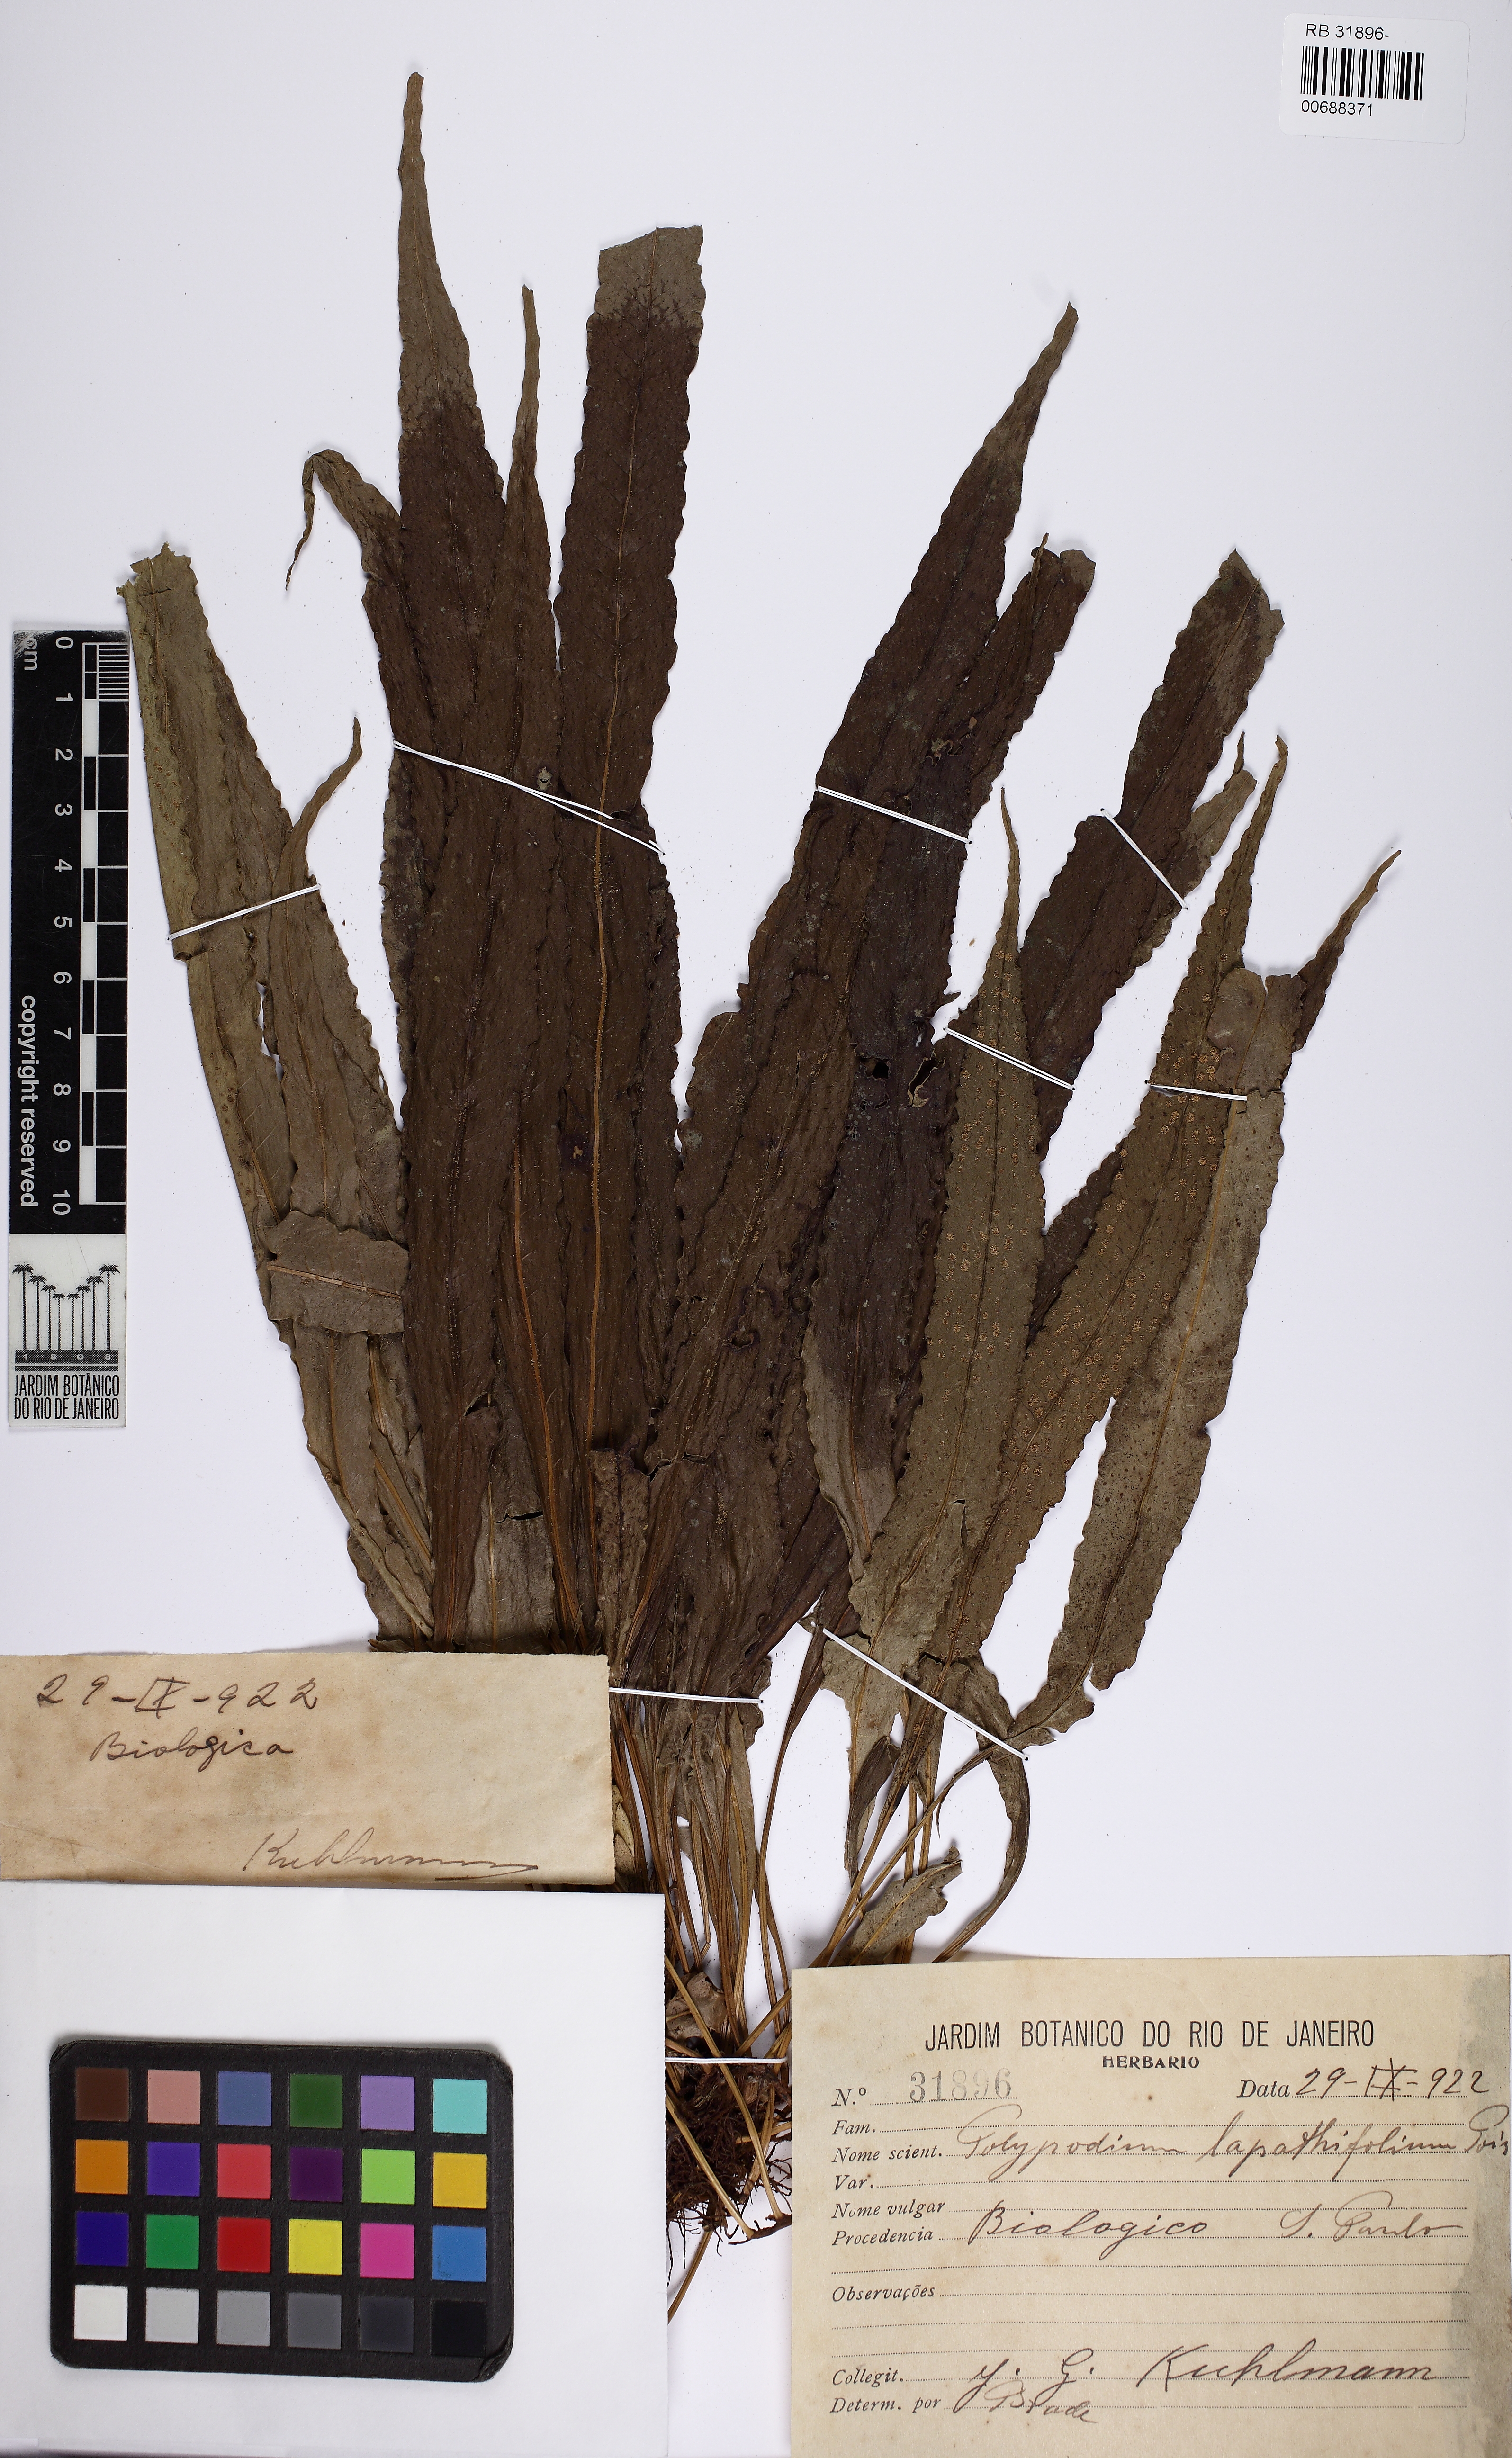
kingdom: Plantae
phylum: Tracheophyta
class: Polypodiopsida
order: Polypodiales
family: Polypodiaceae
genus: Campyloneurum
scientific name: Campyloneurum repens
